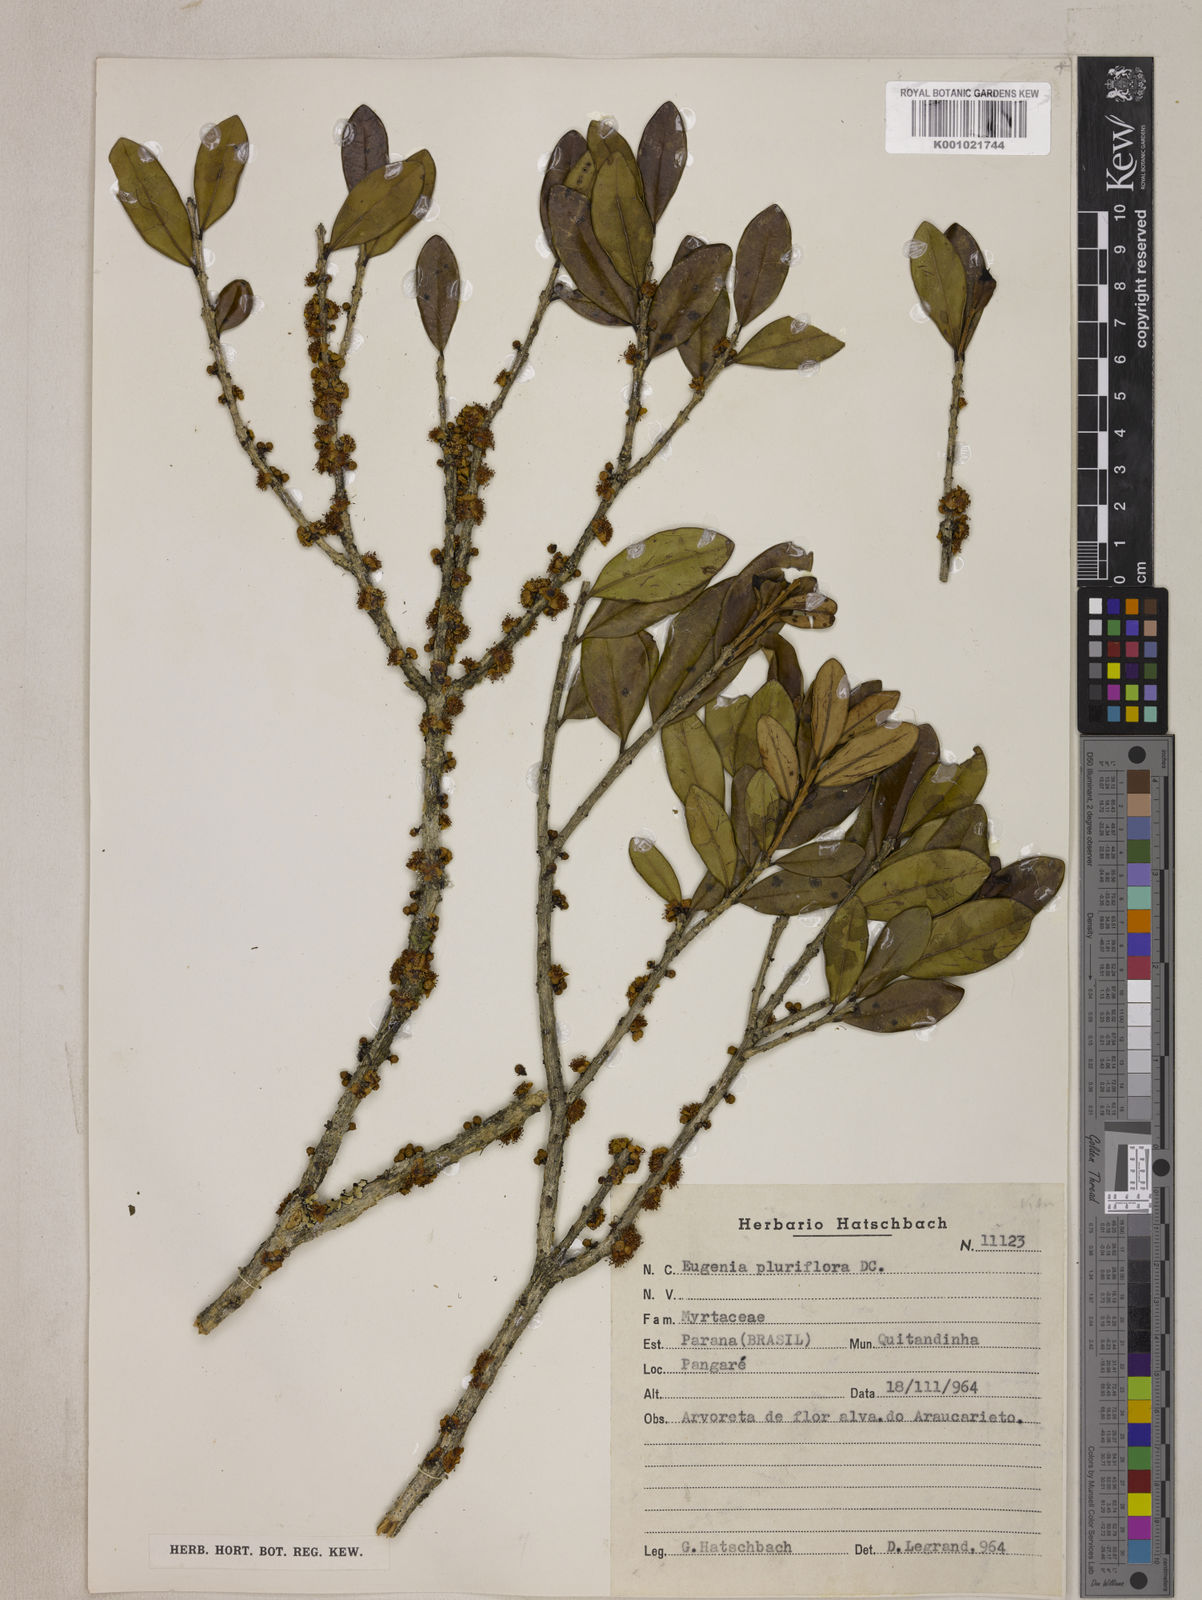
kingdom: Plantae
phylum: Tracheophyta
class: Magnoliopsida
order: Myrtales
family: Myrtaceae
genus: Eugenia
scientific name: Eugenia pluriflora
